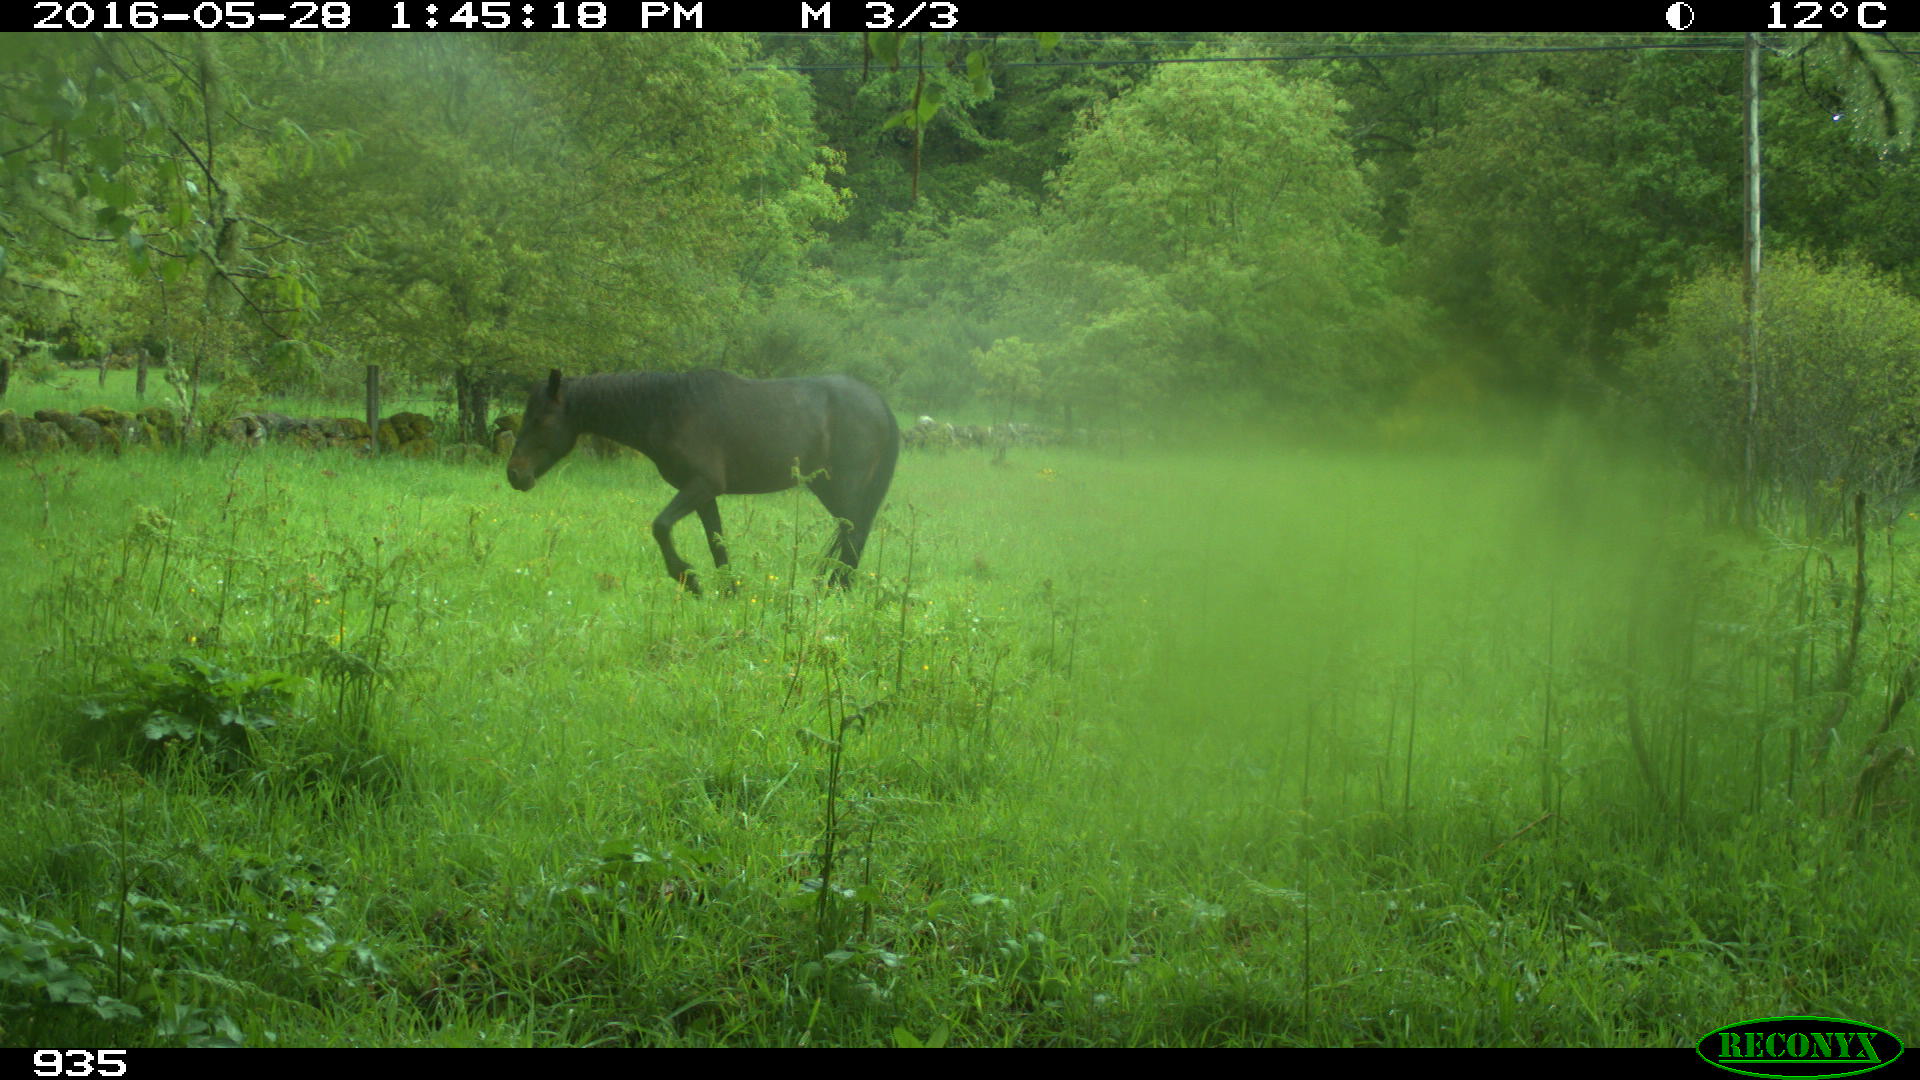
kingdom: Animalia
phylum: Chordata
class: Mammalia
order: Perissodactyla
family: Equidae
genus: Equus
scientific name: Equus caballus
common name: Horse
